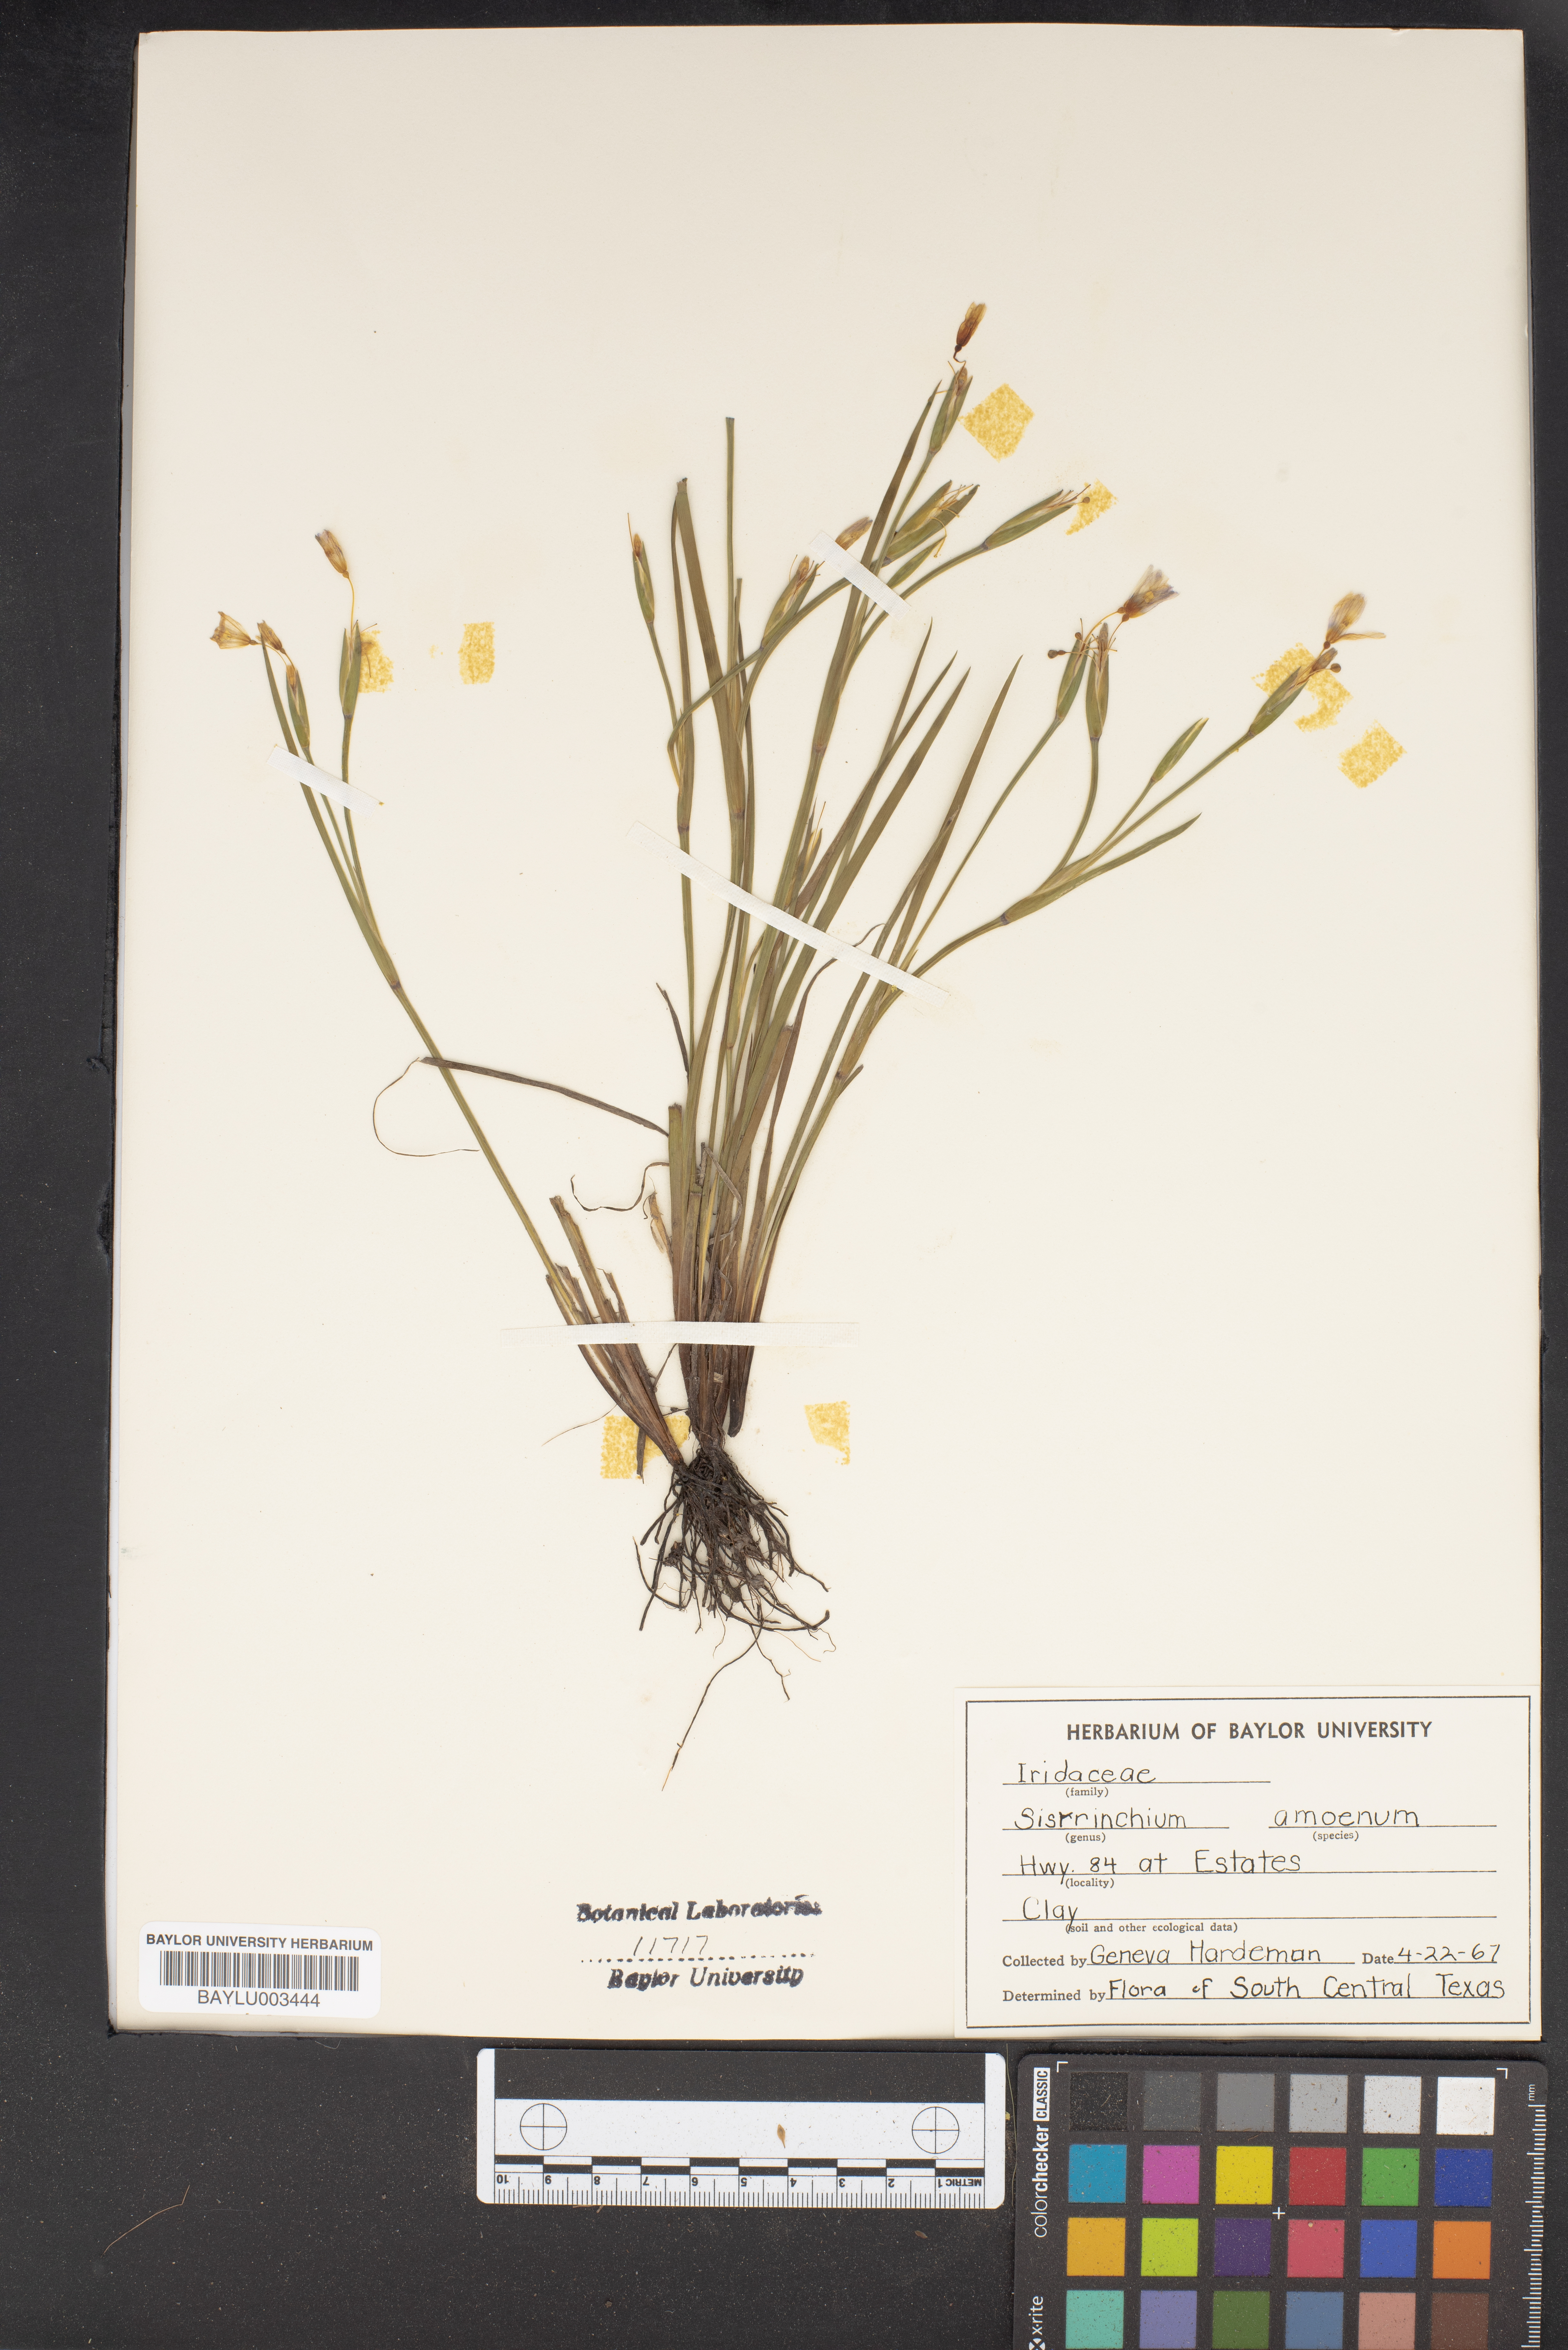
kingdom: Plantae
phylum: Tracheophyta
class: Liliopsida
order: Asparagales
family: Iridaceae
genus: Sisyrinchium
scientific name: Sisyrinchium ensigerum
